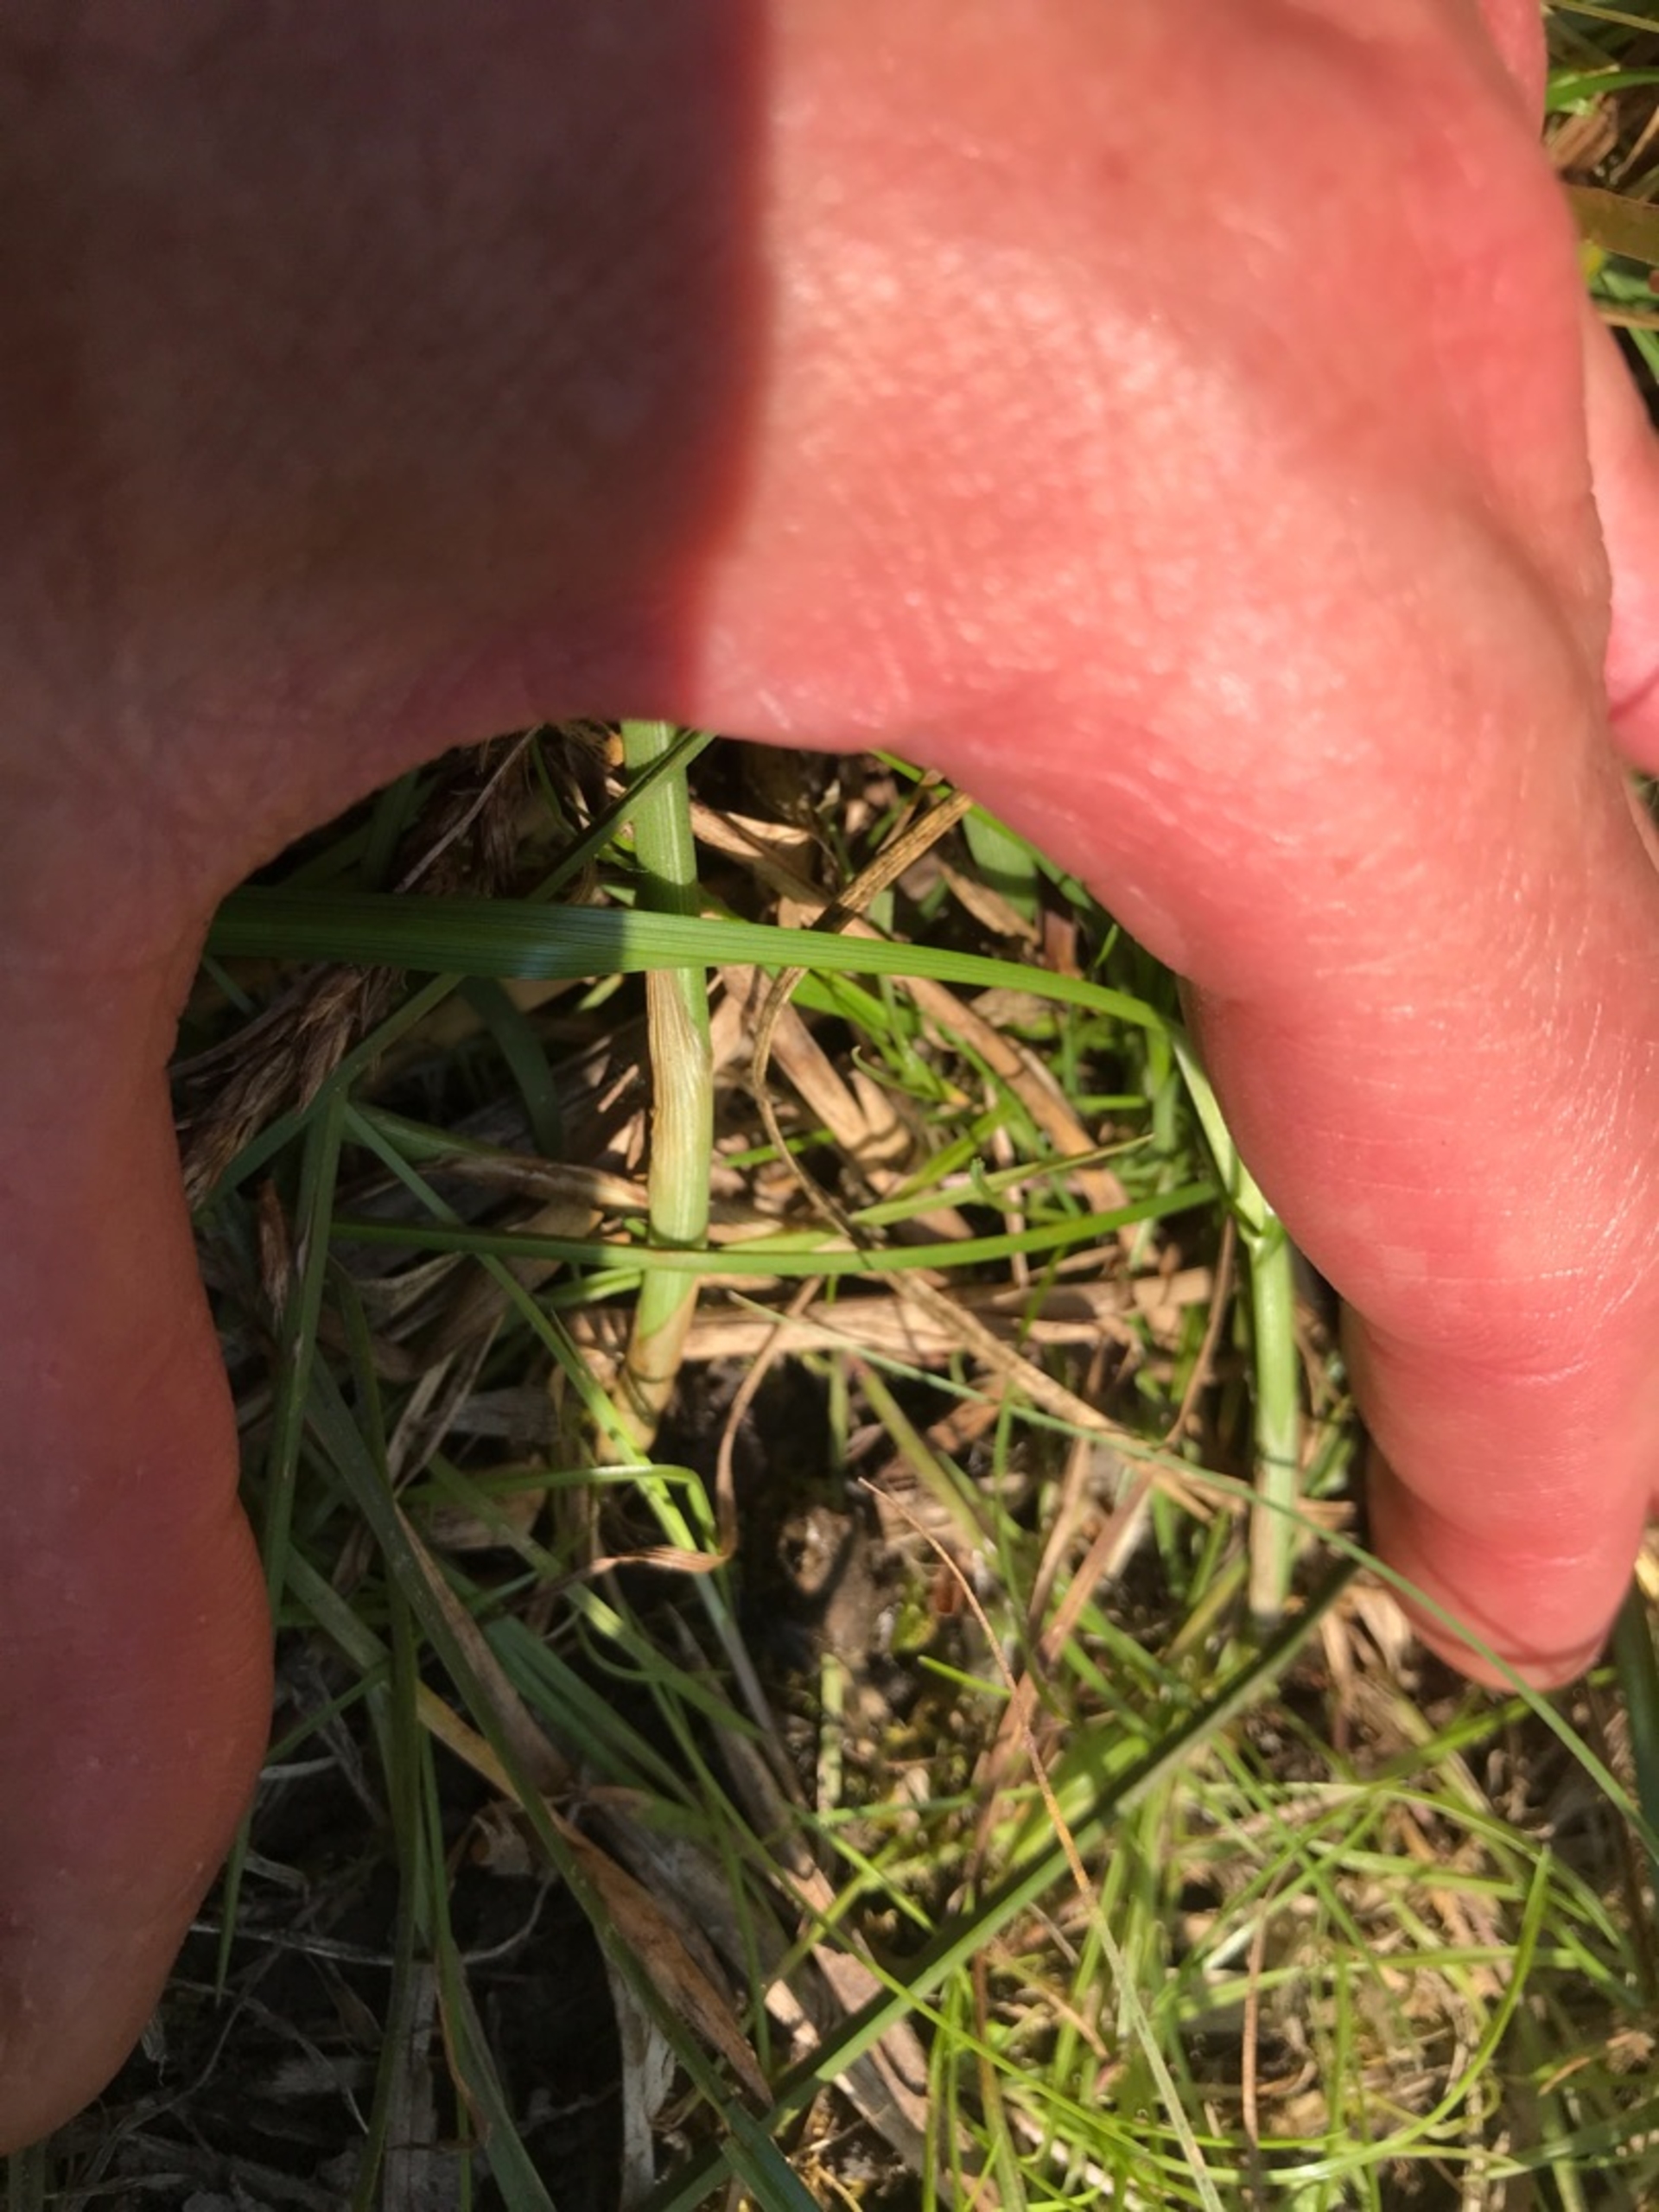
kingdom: Animalia
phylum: Chordata
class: Amphibia
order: Anura
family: Bufonidae
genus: Bufo
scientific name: Bufo bufo
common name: Skrubtudse
